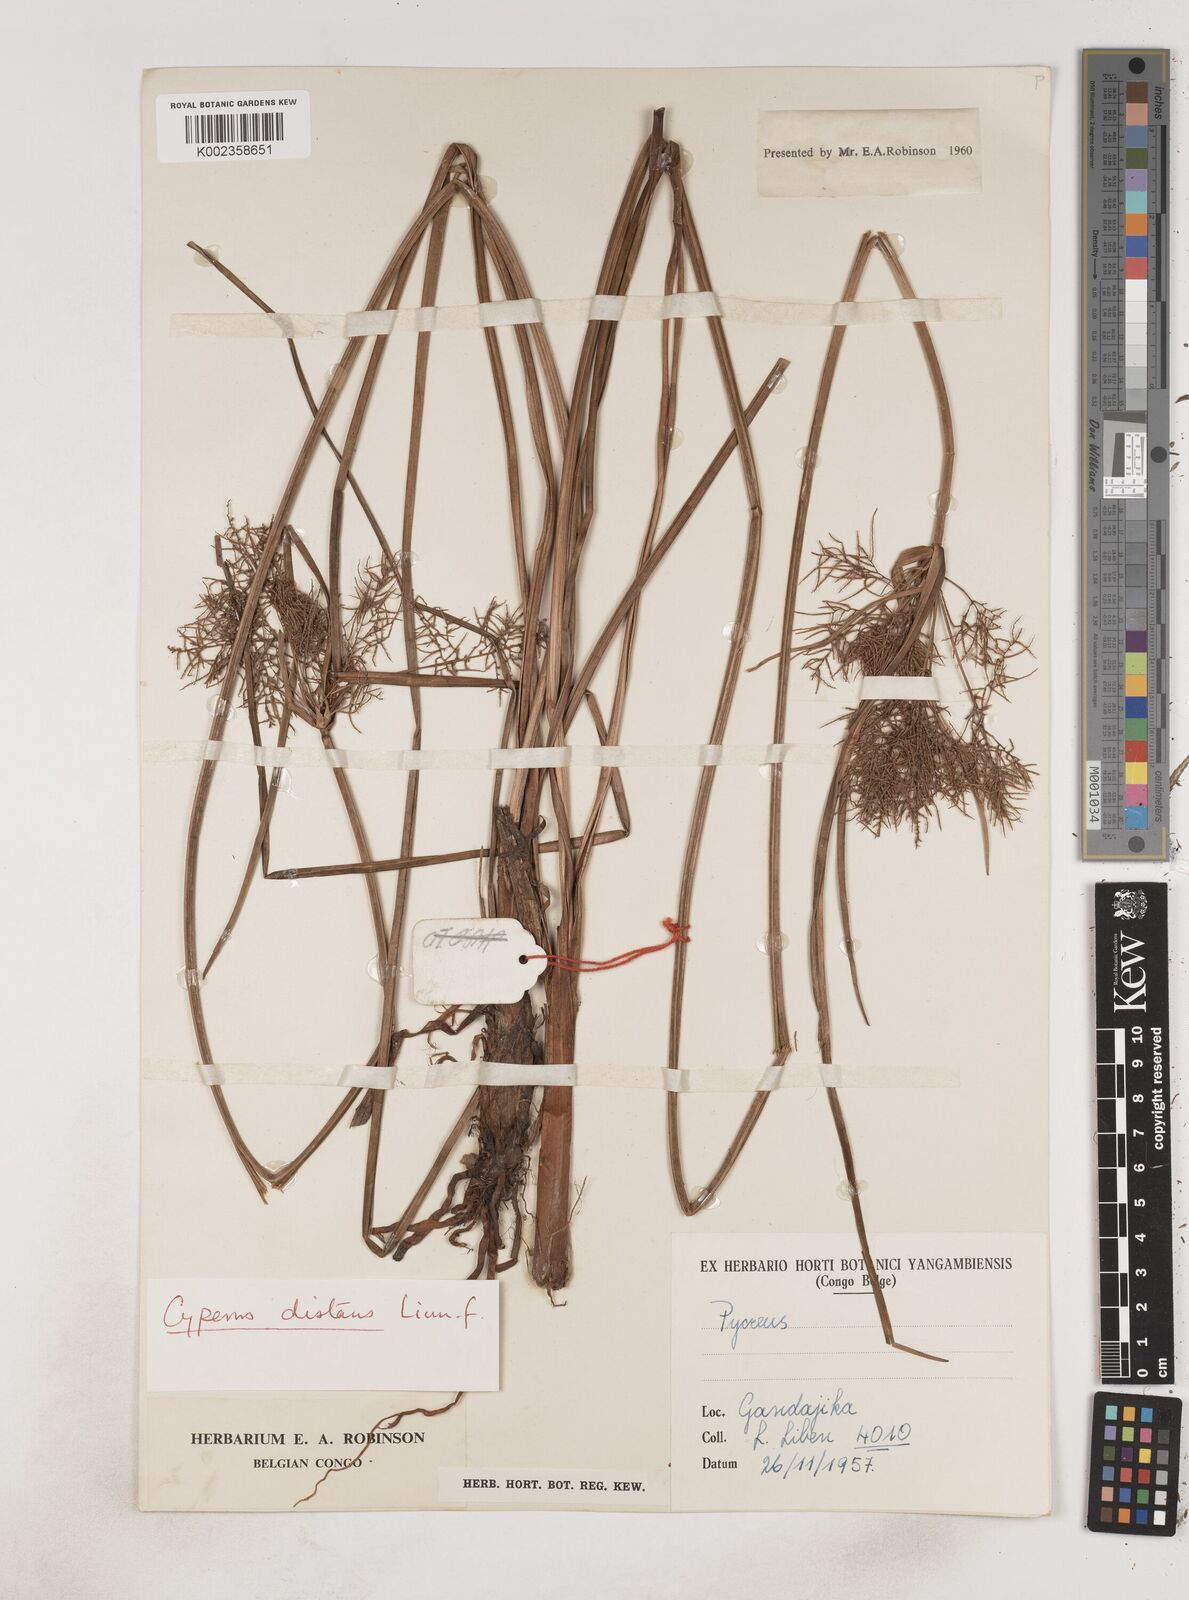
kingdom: Plantae
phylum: Tracheophyta
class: Liliopsida
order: Poales
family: Cyperaceae
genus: Cyperus
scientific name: Cyperus distans
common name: Slender cyperus
